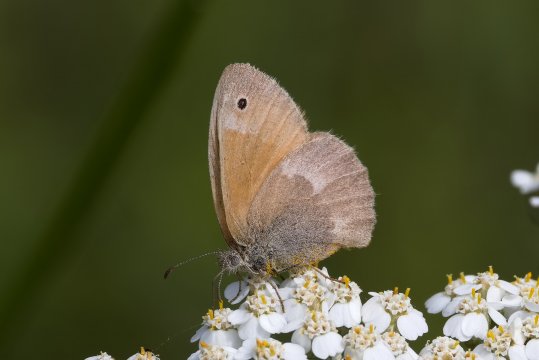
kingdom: Animalia
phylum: Arthropoda
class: Insecta
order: Lepidoptera
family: Nymphalidae
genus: Coenonympha
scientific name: Coenonympha california
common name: California Ringlet
